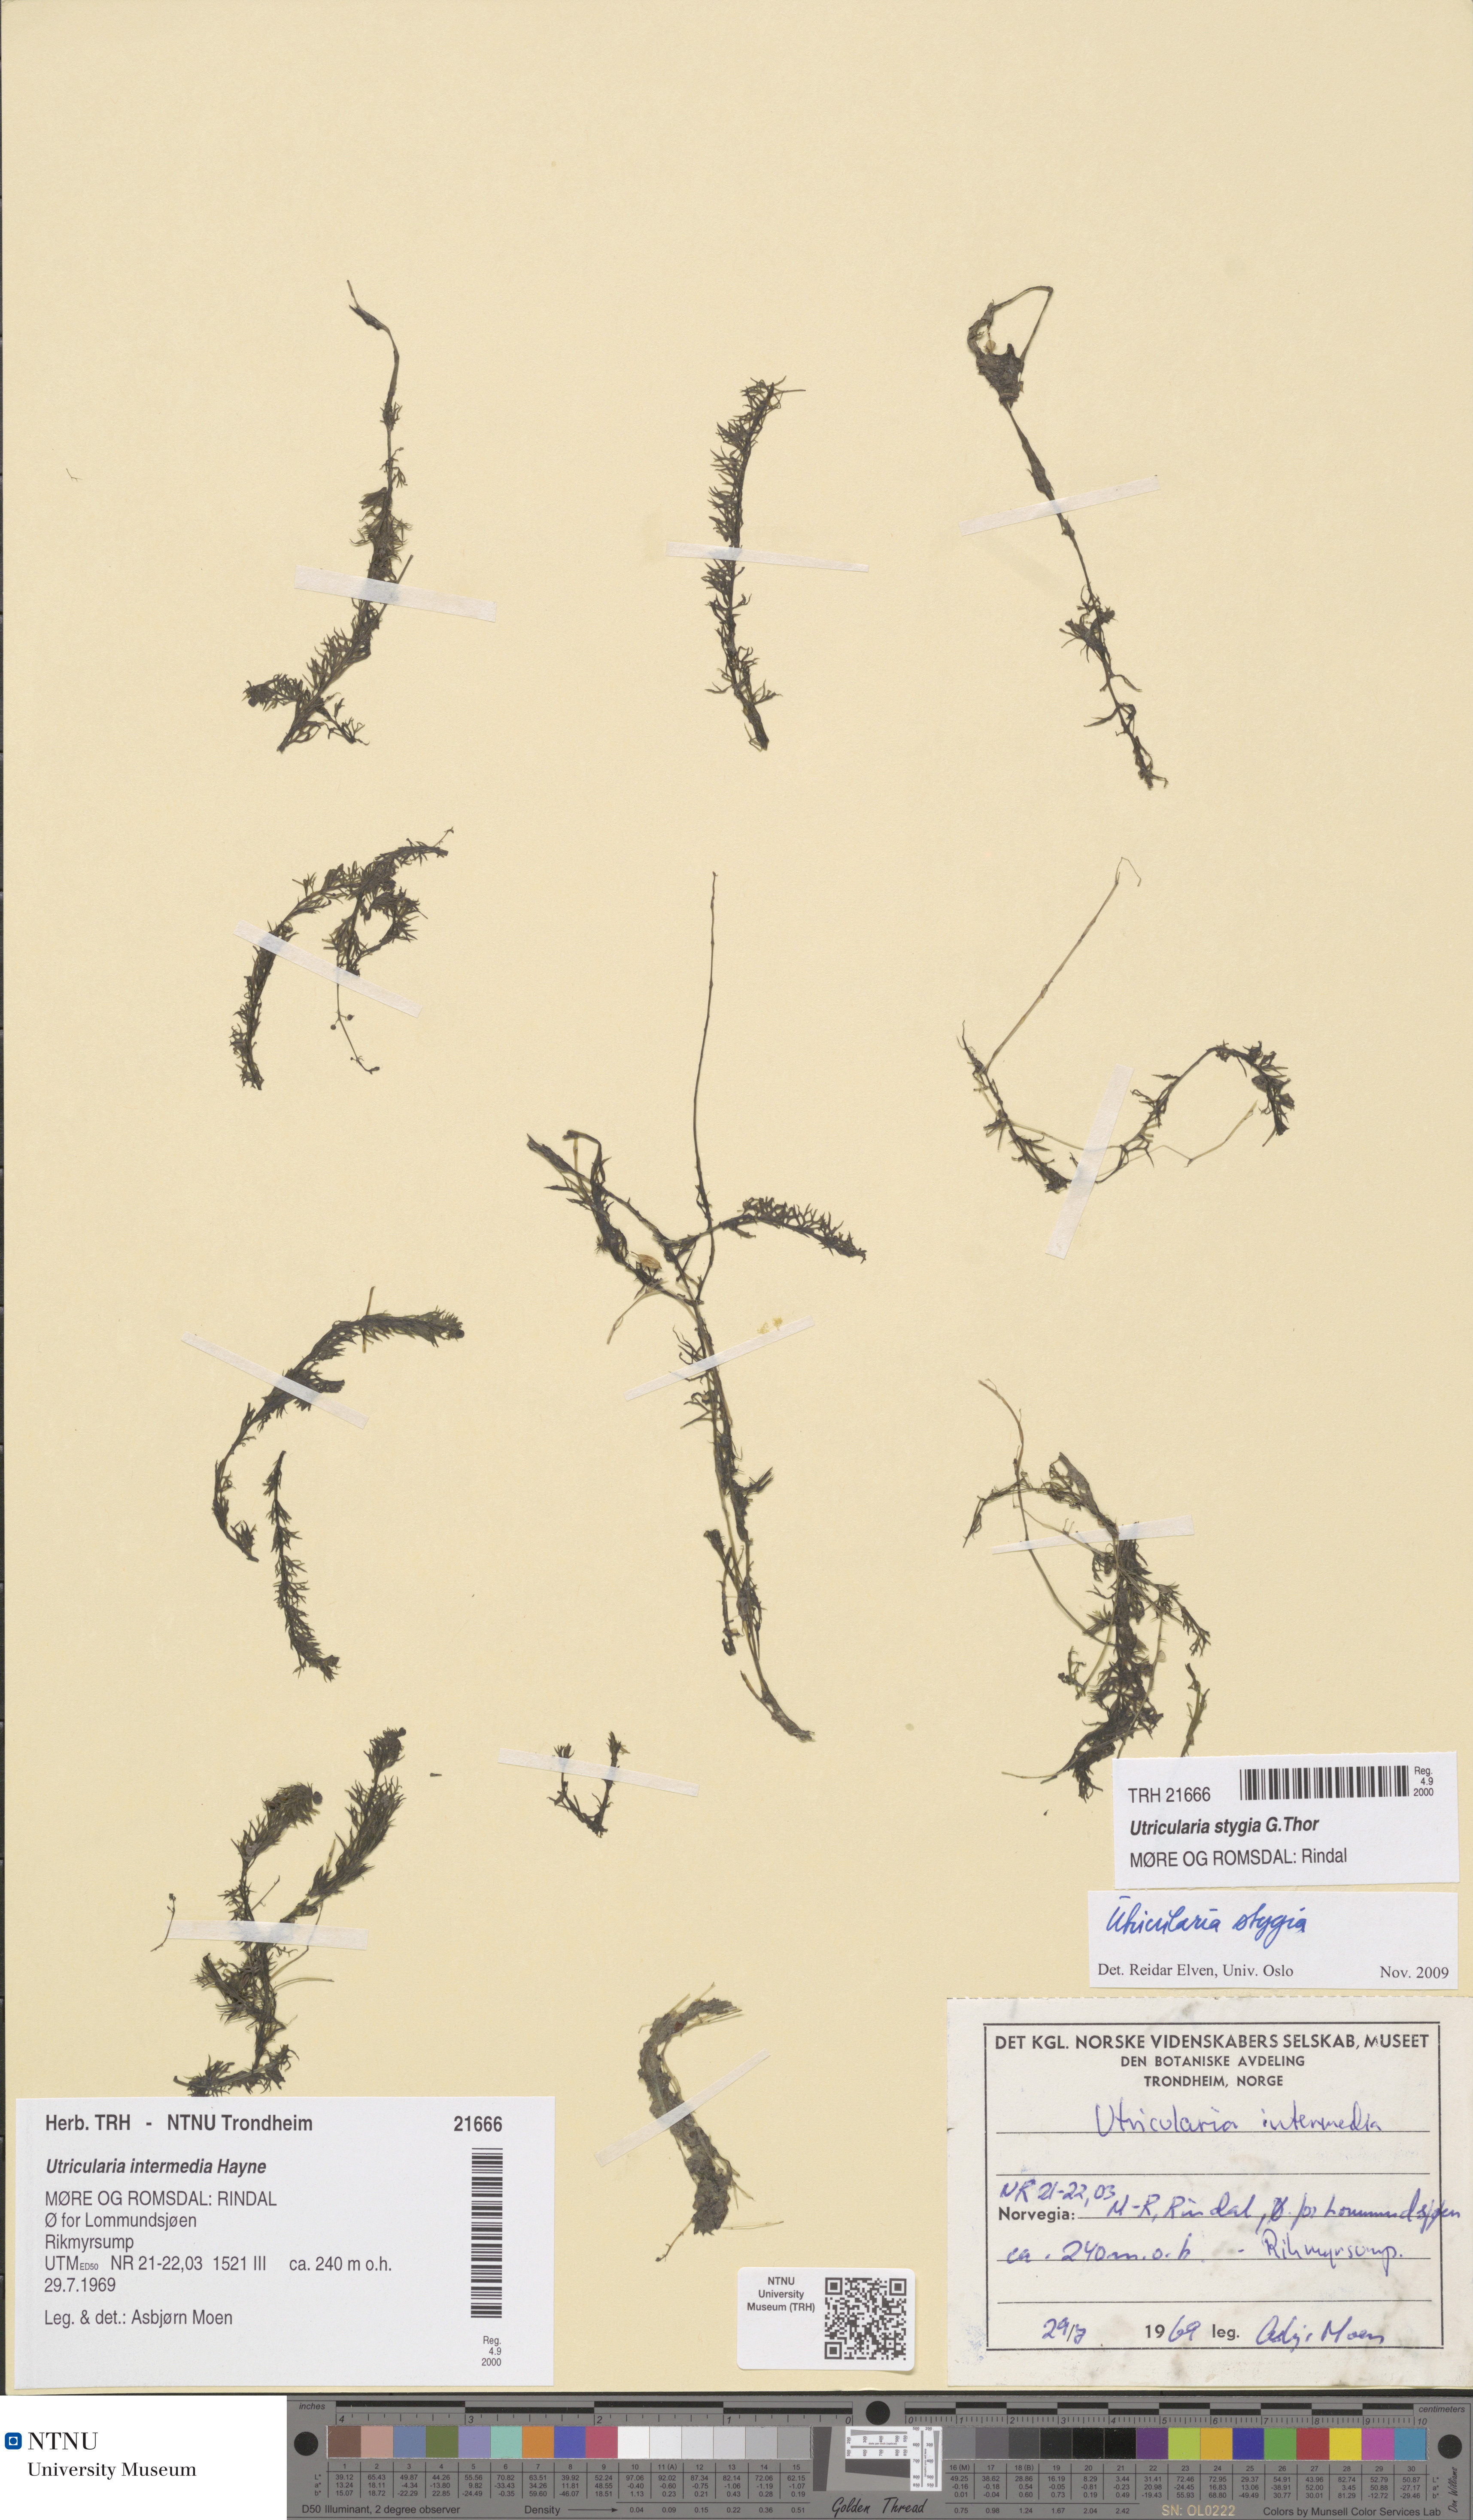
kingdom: Plantae
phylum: Tracheophyta
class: Magnoliopsida
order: Lamiales
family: Lentibulariaceae
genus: Utricularia
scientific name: Utricularia ochroleuca
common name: Pale bladderwort
